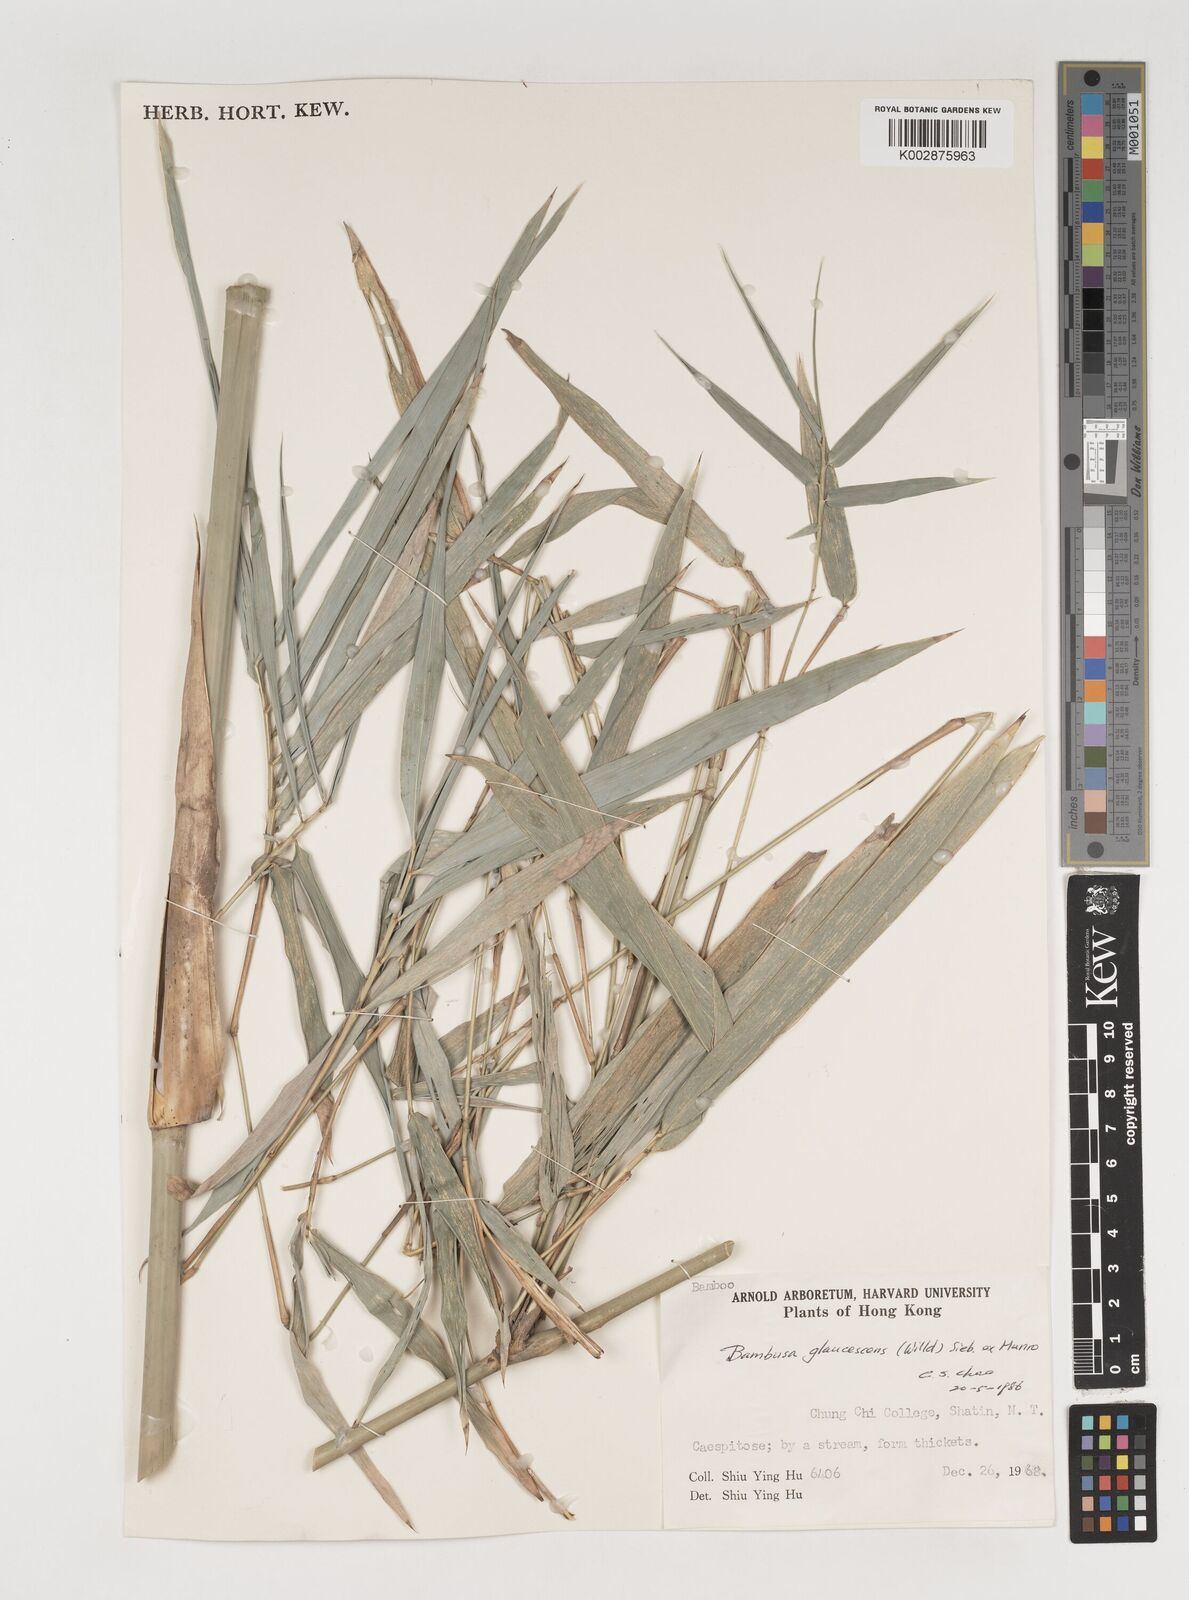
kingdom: Plantae
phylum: Tracheophyta
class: Liliopsida
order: Poales
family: Poaceae
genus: Bambusa
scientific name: Bambusa multiplex
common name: Hedge bamboo
